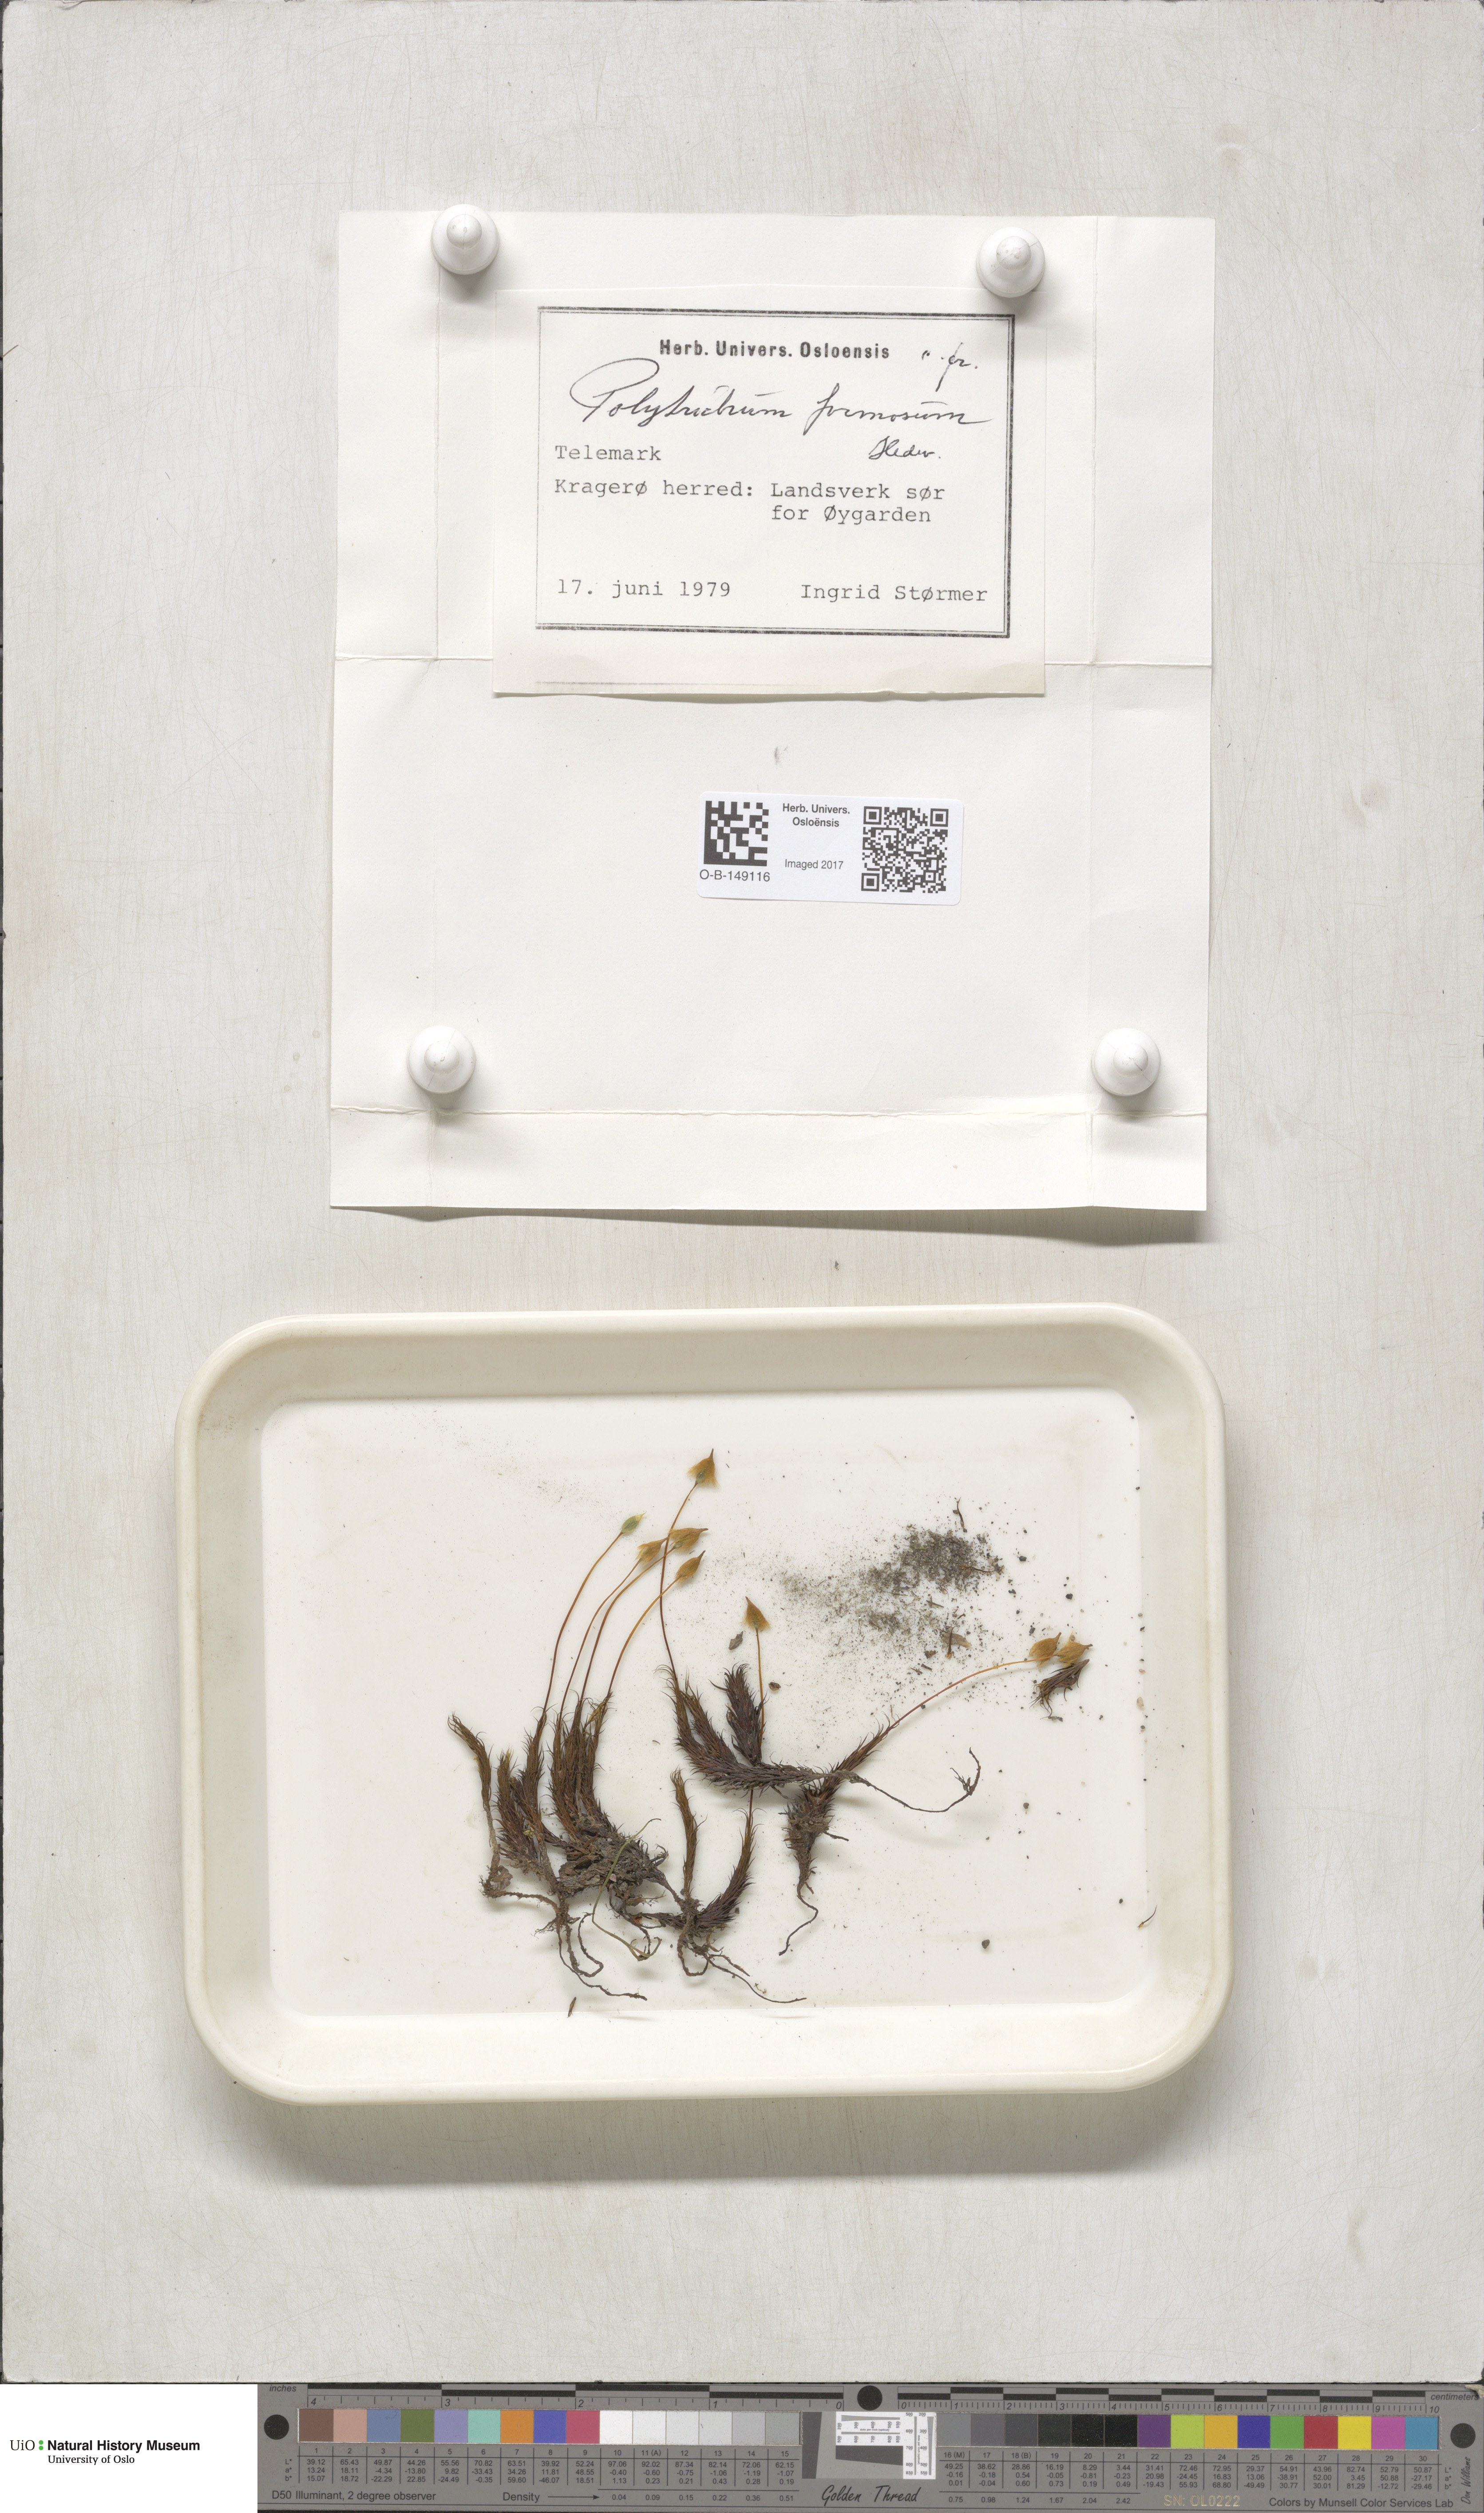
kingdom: Plantae
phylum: Bryophyta
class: Polytrichopsida
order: Polytrichales
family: Polytrichaceae
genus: Polytrichum
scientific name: Polytrichum formosum
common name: Bank haircap moss
